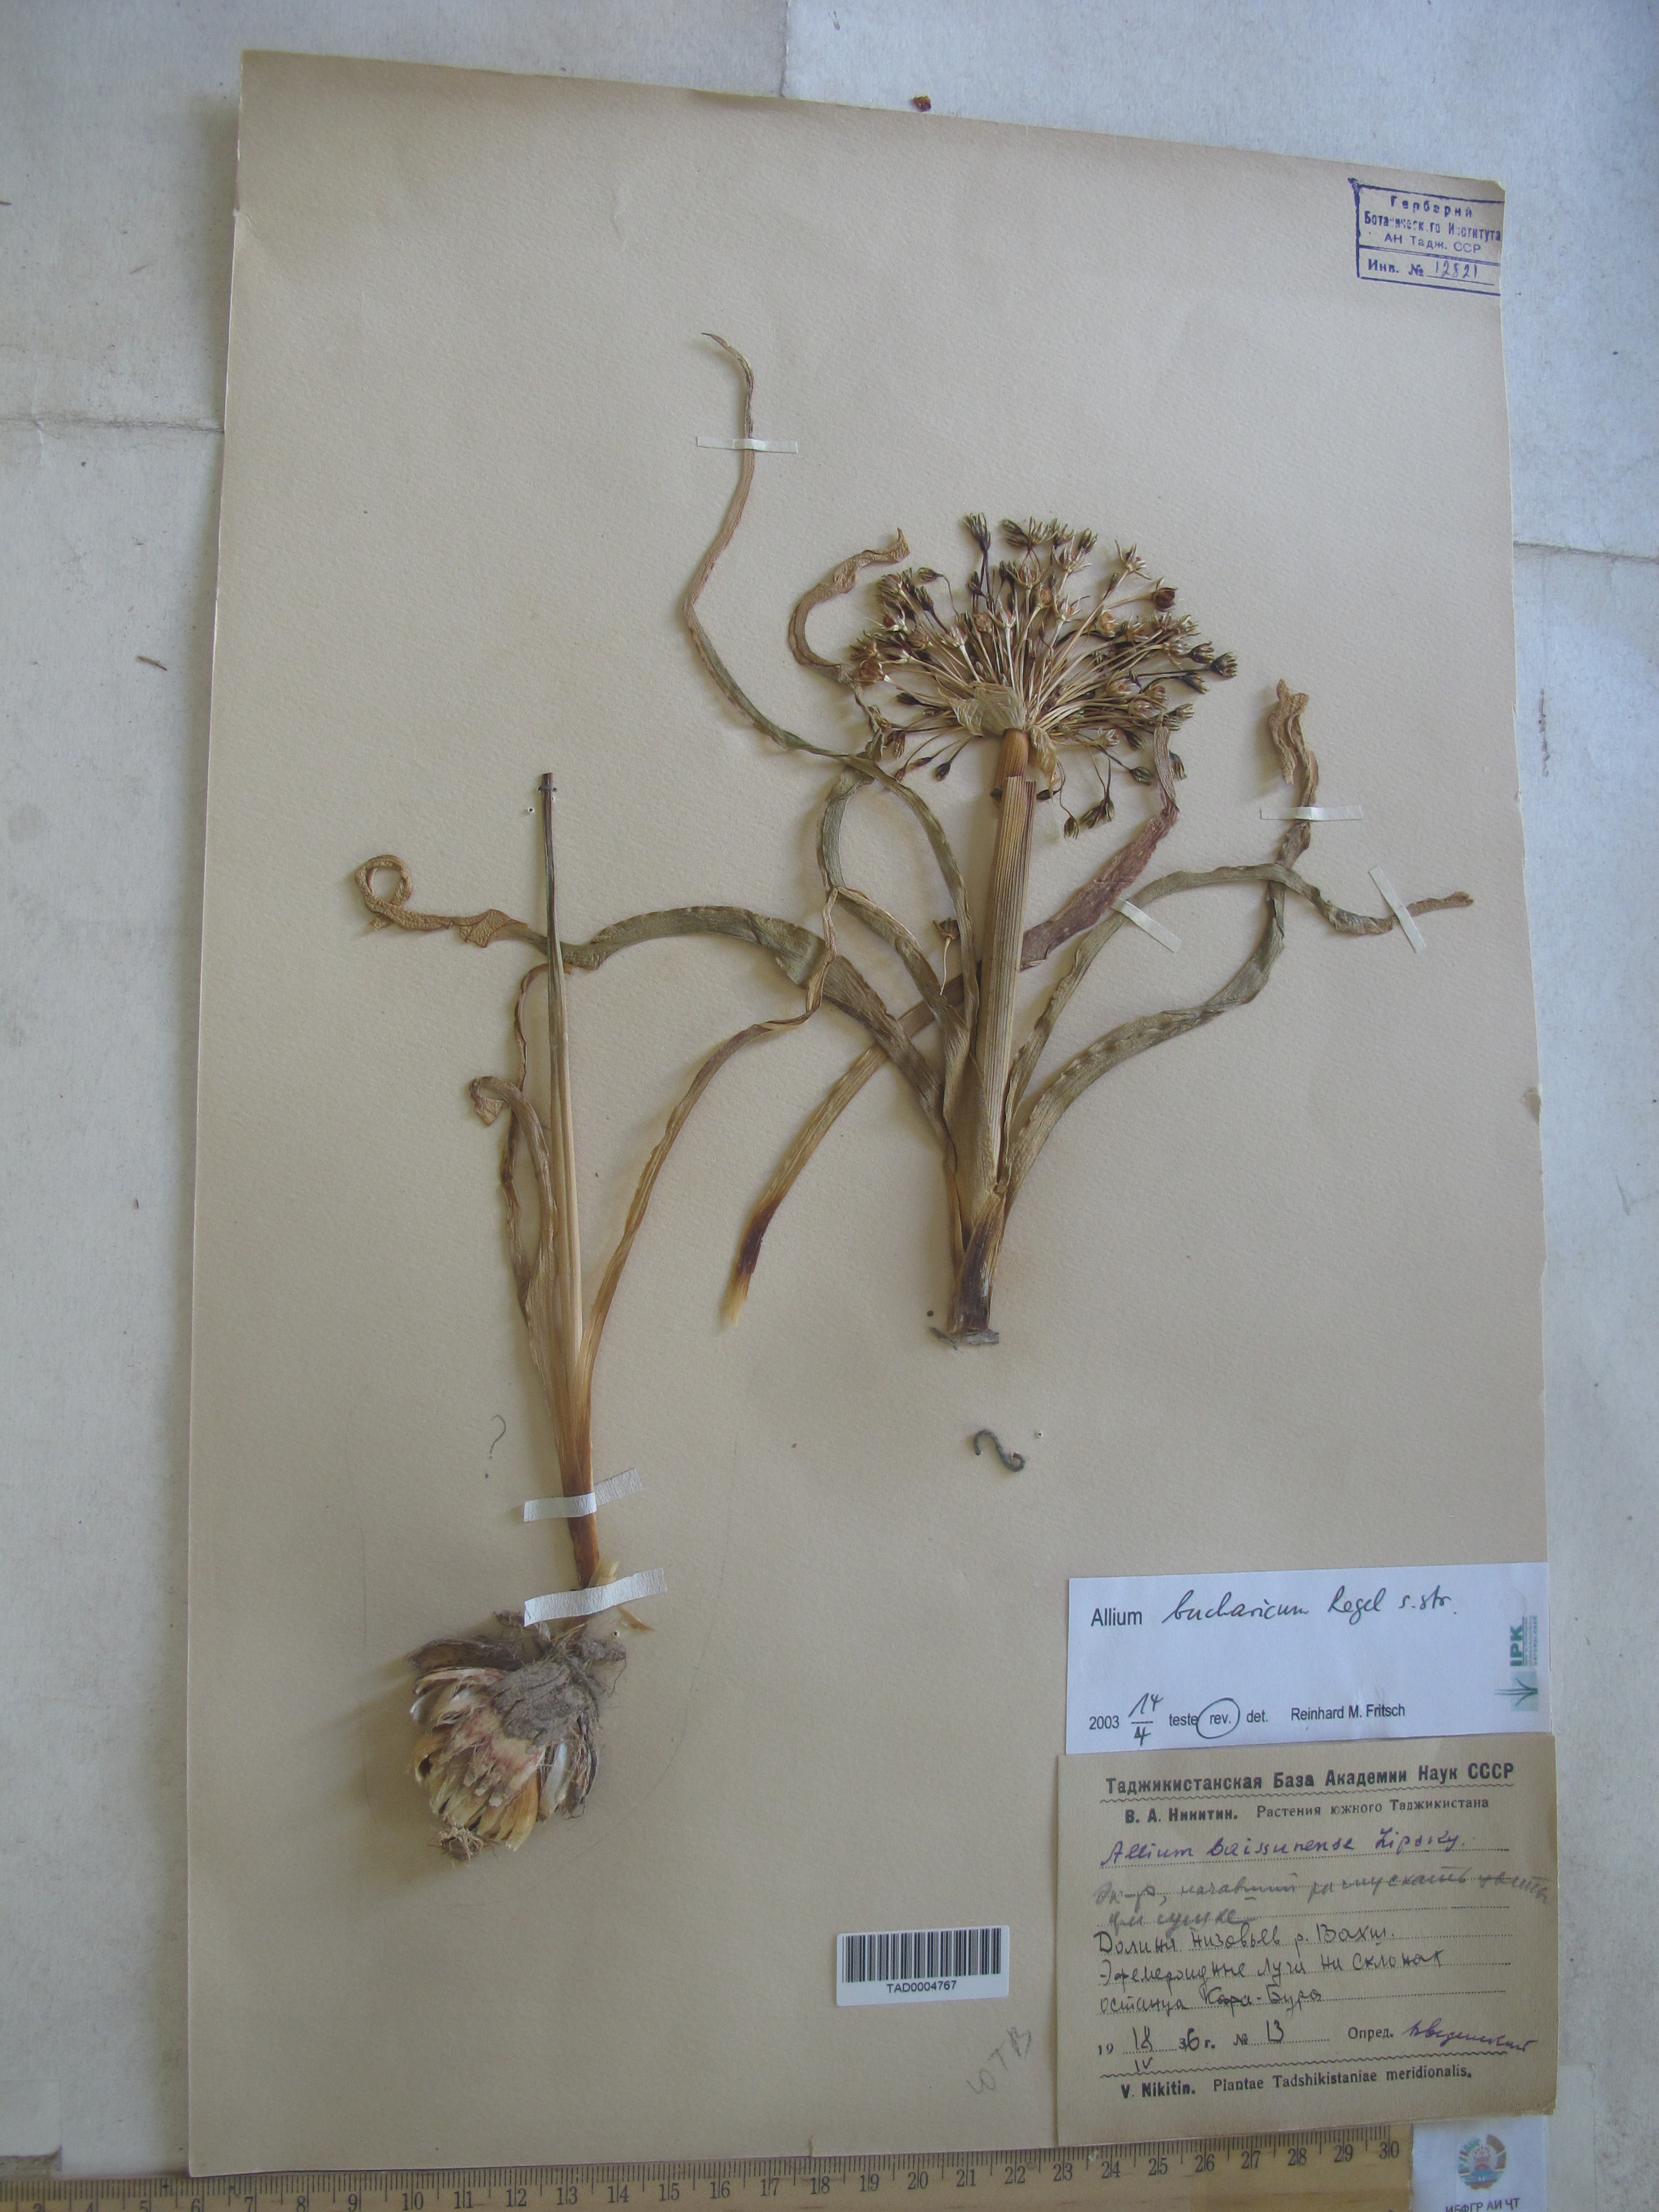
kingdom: Plantae
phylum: Tracheophyta
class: Liliopsida
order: Asparagales
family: Amaryllidaceae
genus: Allium
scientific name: Allium bucharicum
